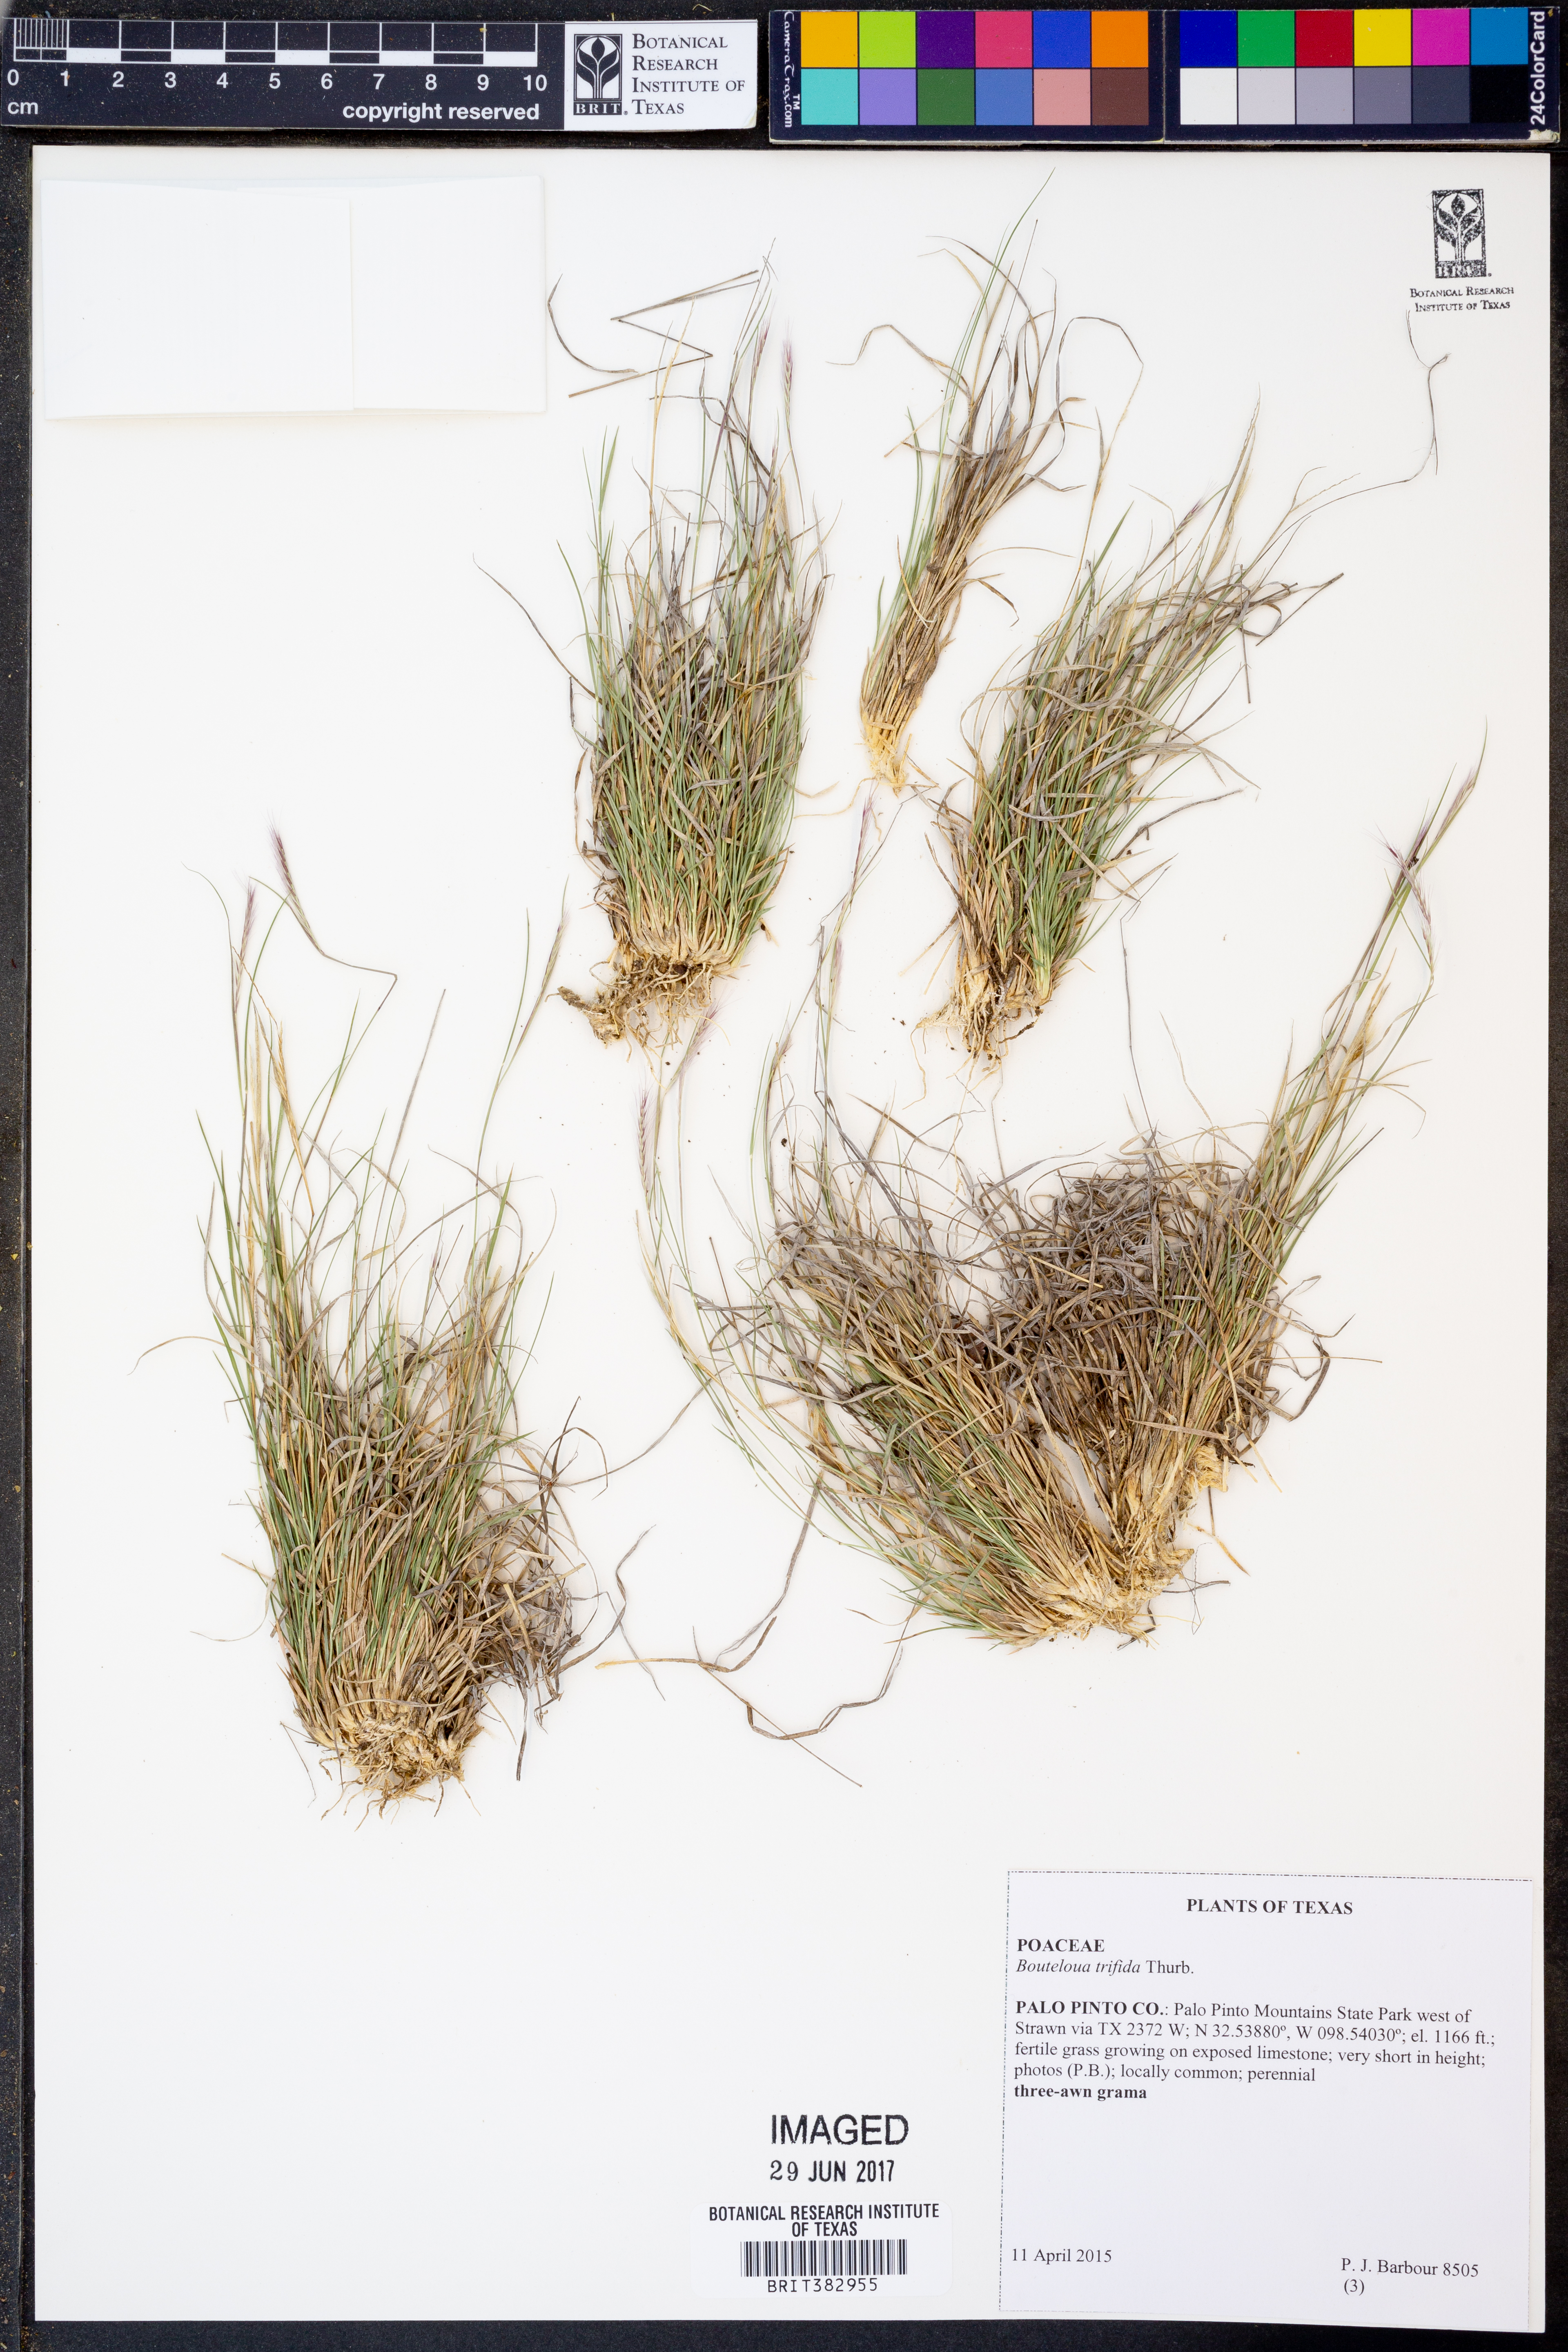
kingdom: Plantae
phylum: Tracheophyta
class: Liliopsida
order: Poales
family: Poaceae
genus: Bouteloua
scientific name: Bouteloua trifida
